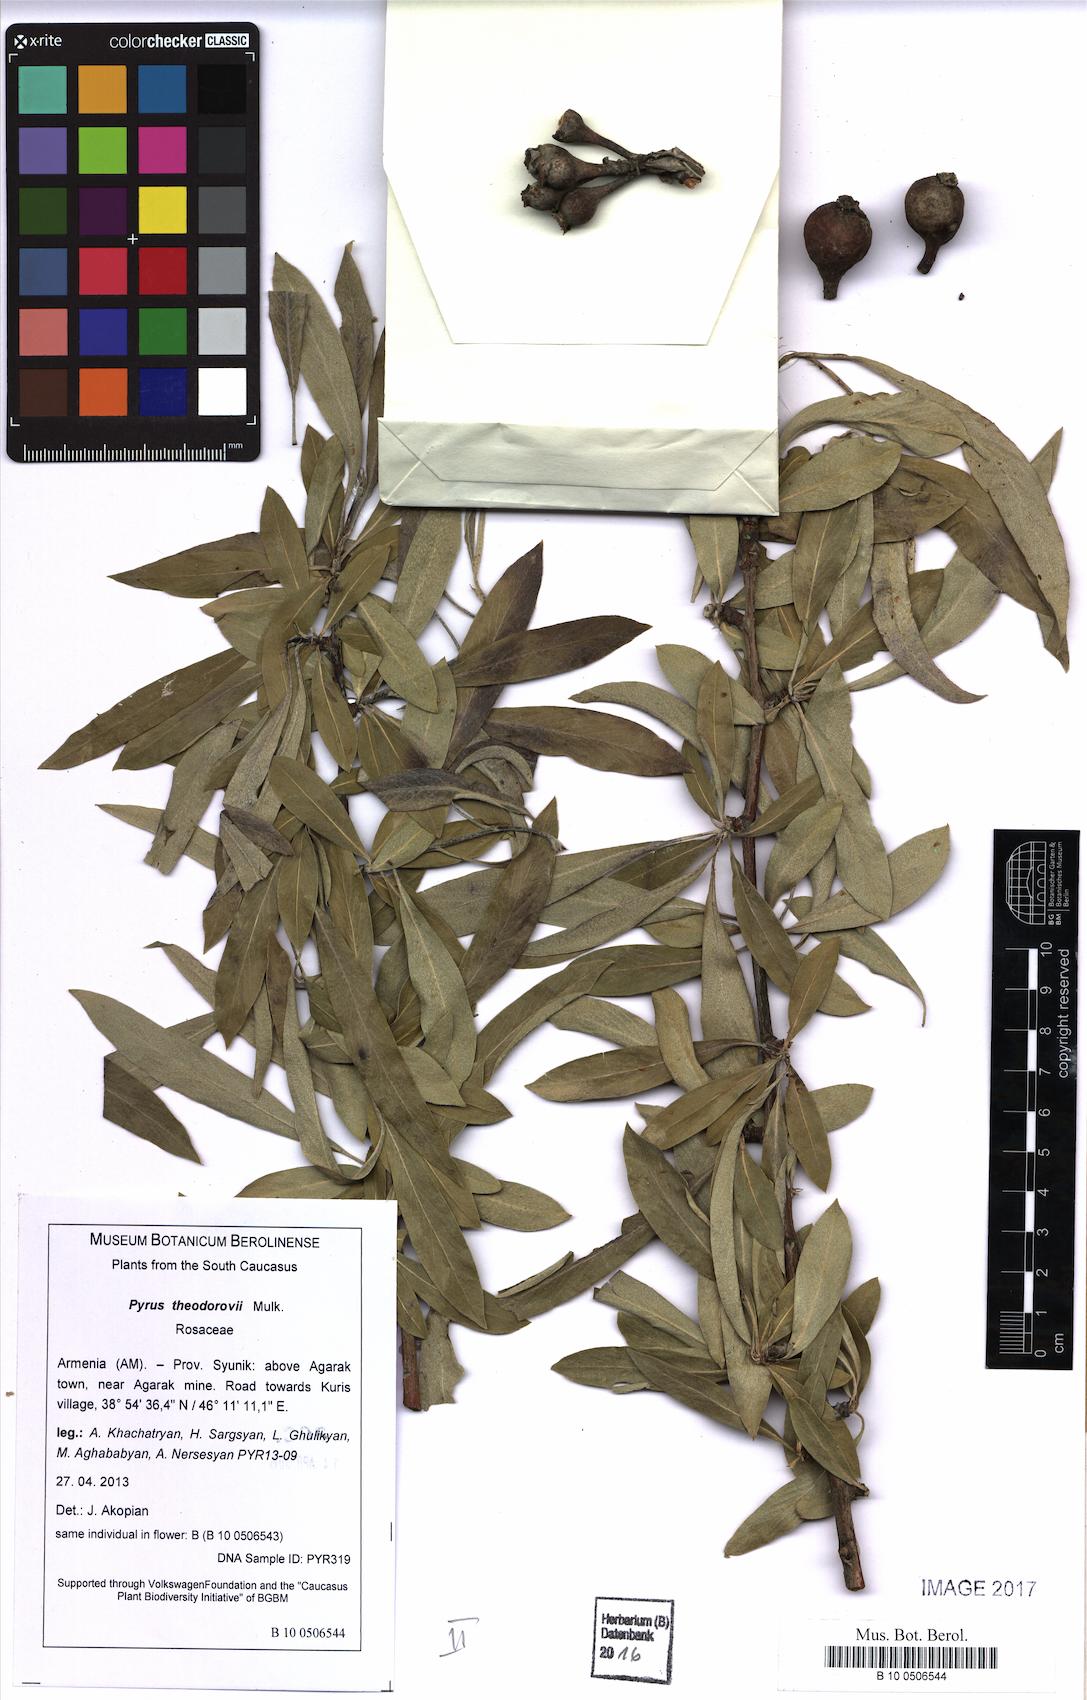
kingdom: Plantae
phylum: Tracheophyta
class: Magnoliopsida
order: Rosales
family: Rosaceae
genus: Pyrus
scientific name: Pyrus theodorovii
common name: Teodorov's pear
